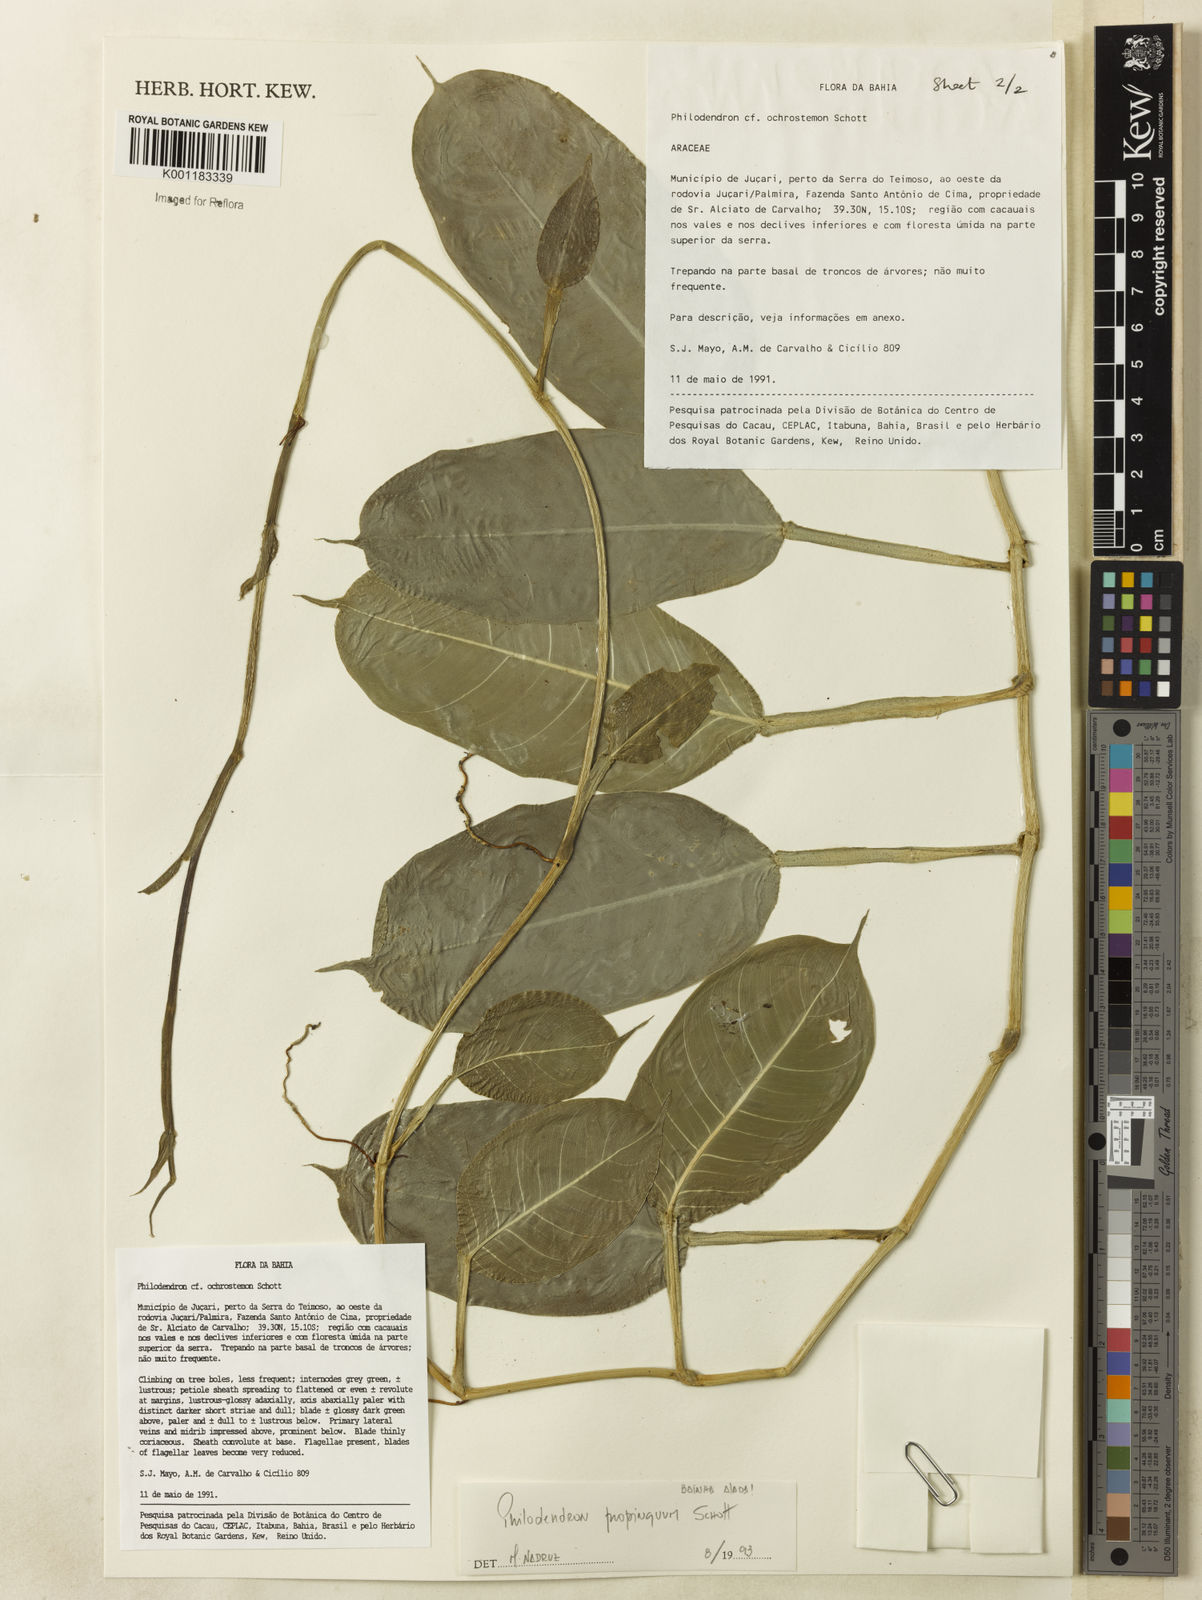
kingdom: Plantae
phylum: Tracheophyta
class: Liliopsida
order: Alismatales
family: Araceae
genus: Philodendron
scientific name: Philodendron propinquum
